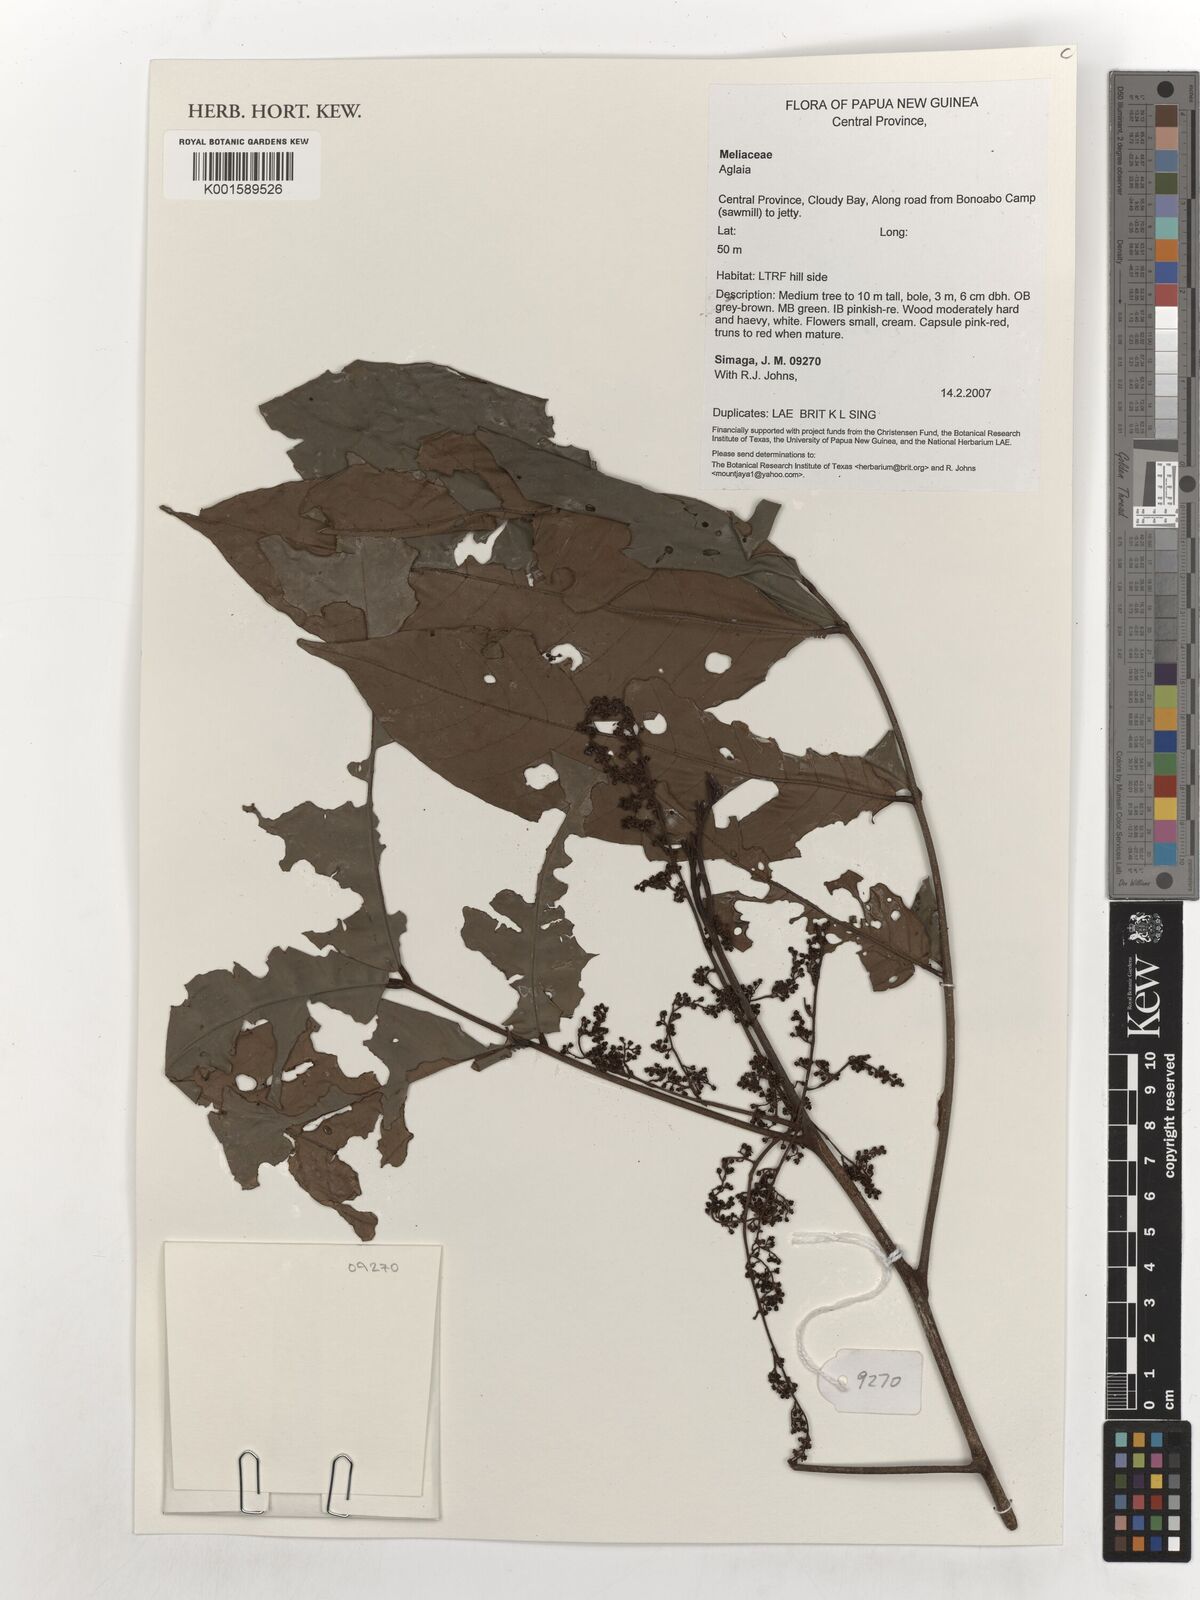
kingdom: Plantae
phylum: Tracheophyta
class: Magnoliopsida
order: Sapindales
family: Meliaceae
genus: Aglaia
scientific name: Aglaia
